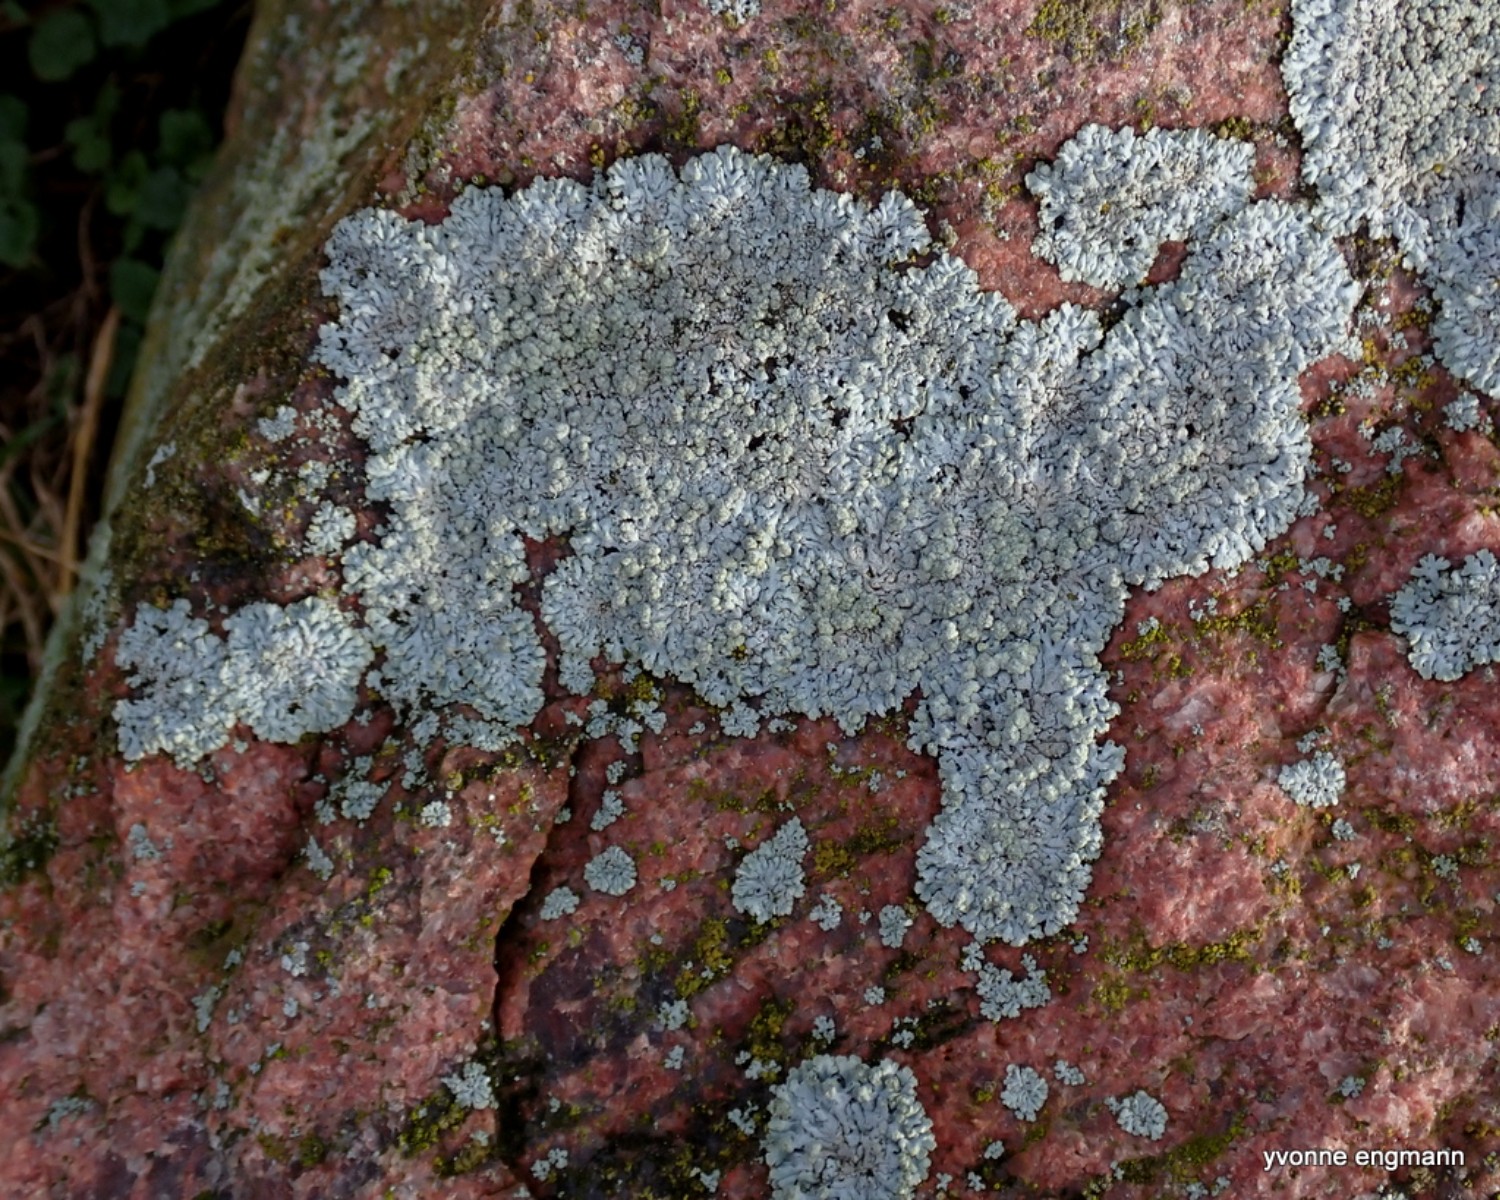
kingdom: Fungi
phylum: Ascomycota
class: Lecanoromycetes
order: Caliciales
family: Physciaceae
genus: Physcia
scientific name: Physcia caesia
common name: blågrå rosetlav
